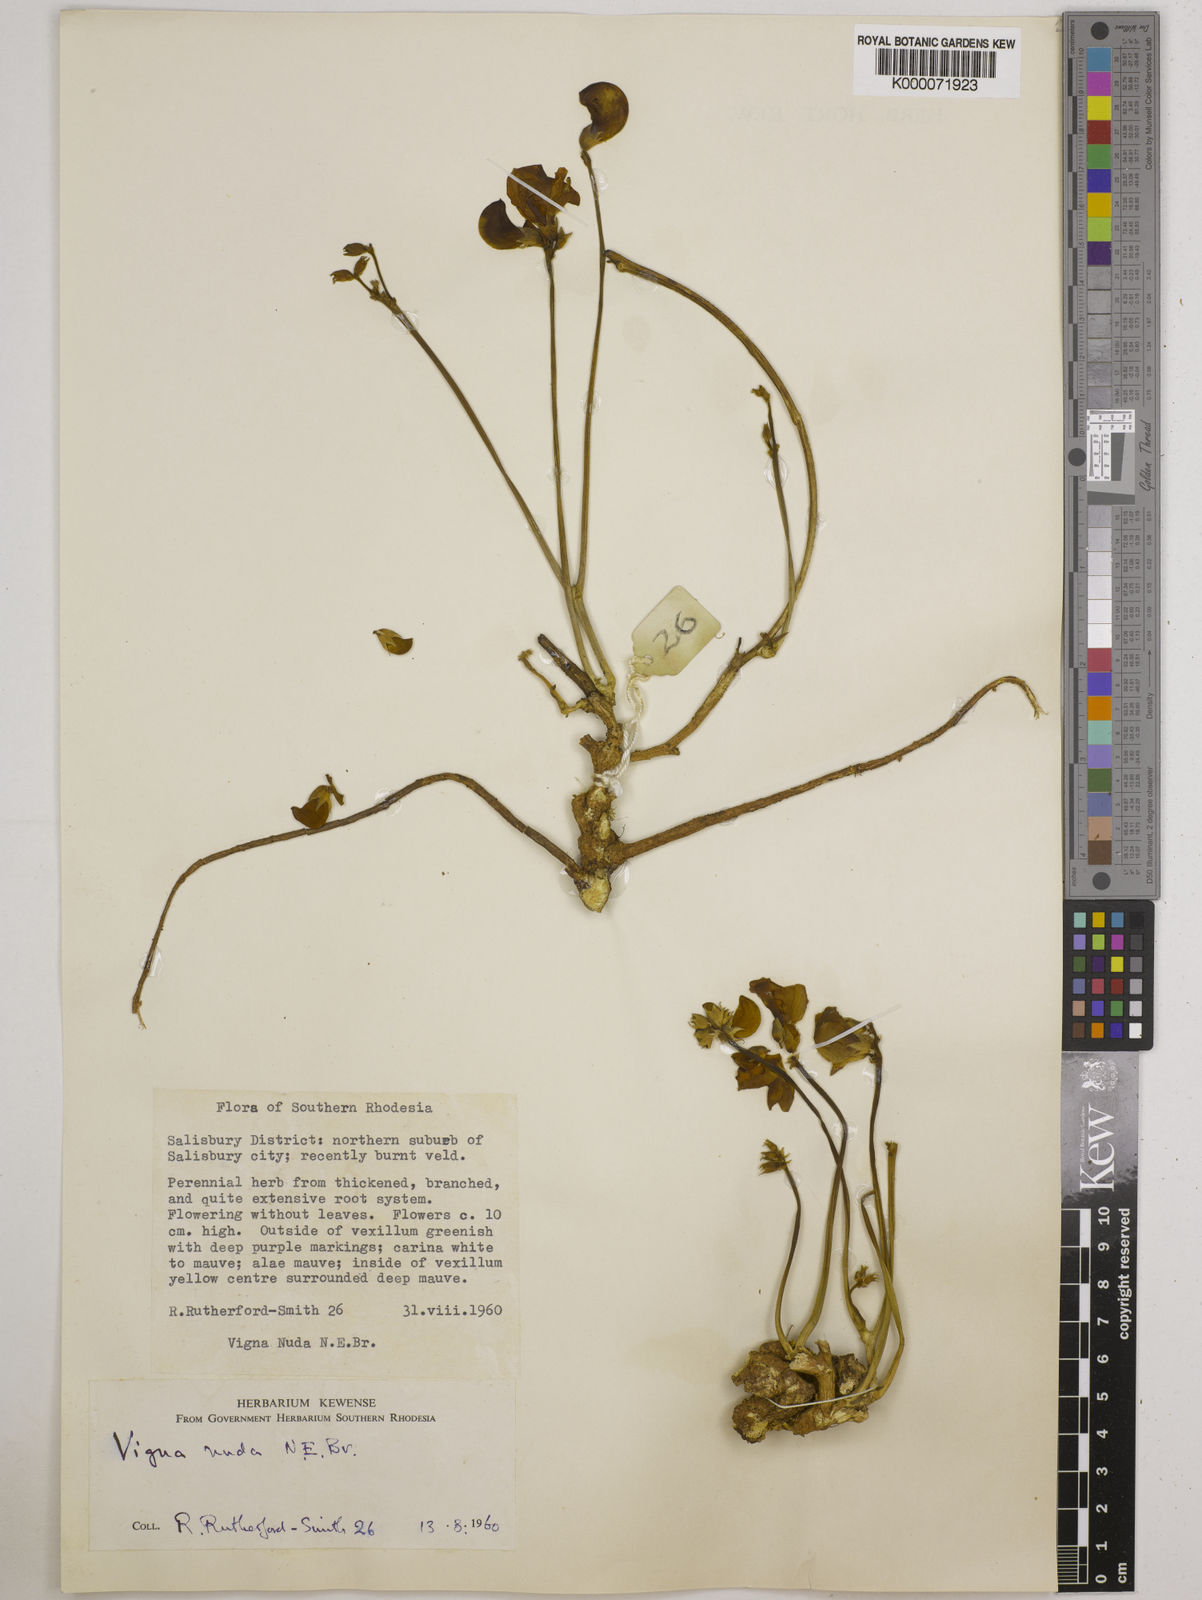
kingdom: Plantae
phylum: Tracheophyta
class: Magnoliopsida
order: Fabales
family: Fabaceae
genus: Vigna
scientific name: Vigna antunesii
